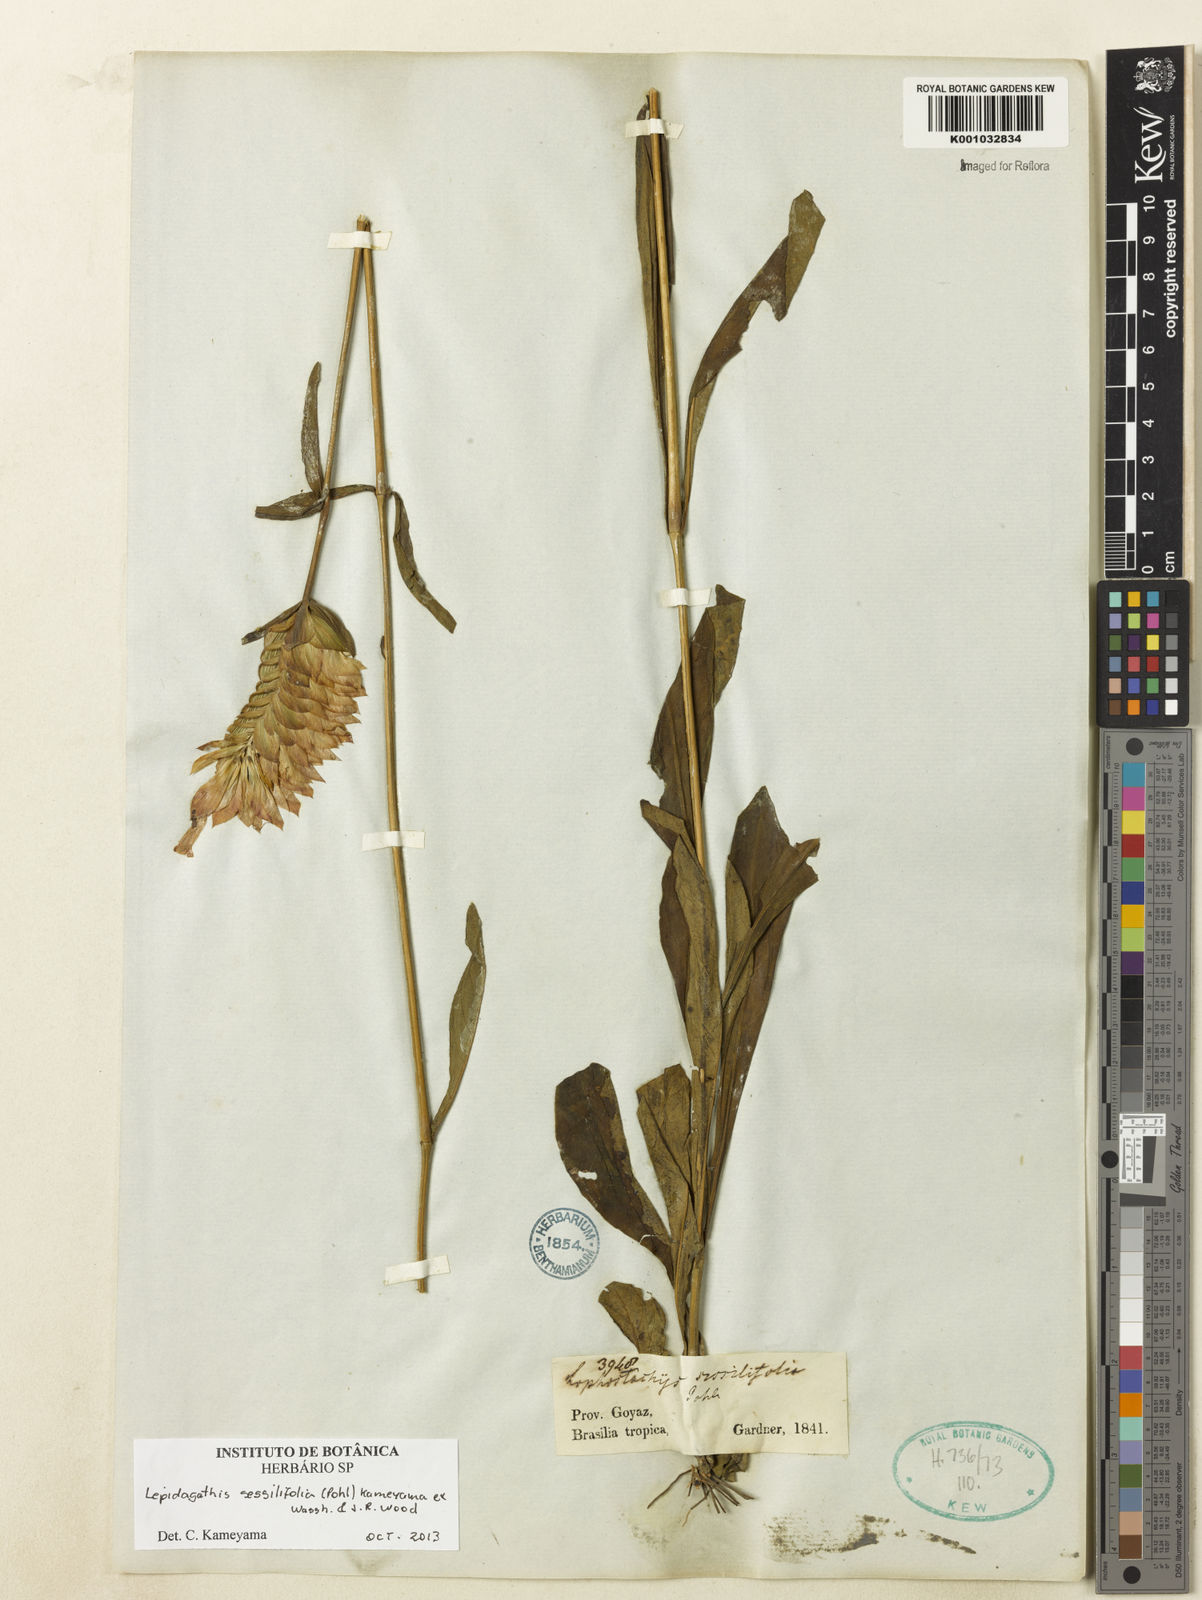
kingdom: Plantae
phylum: Tracheophyta
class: Magnoliopsida
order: Lamiales
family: Acanthaceae
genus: Lepidagathis
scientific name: Lepidagathis sessilifolia
